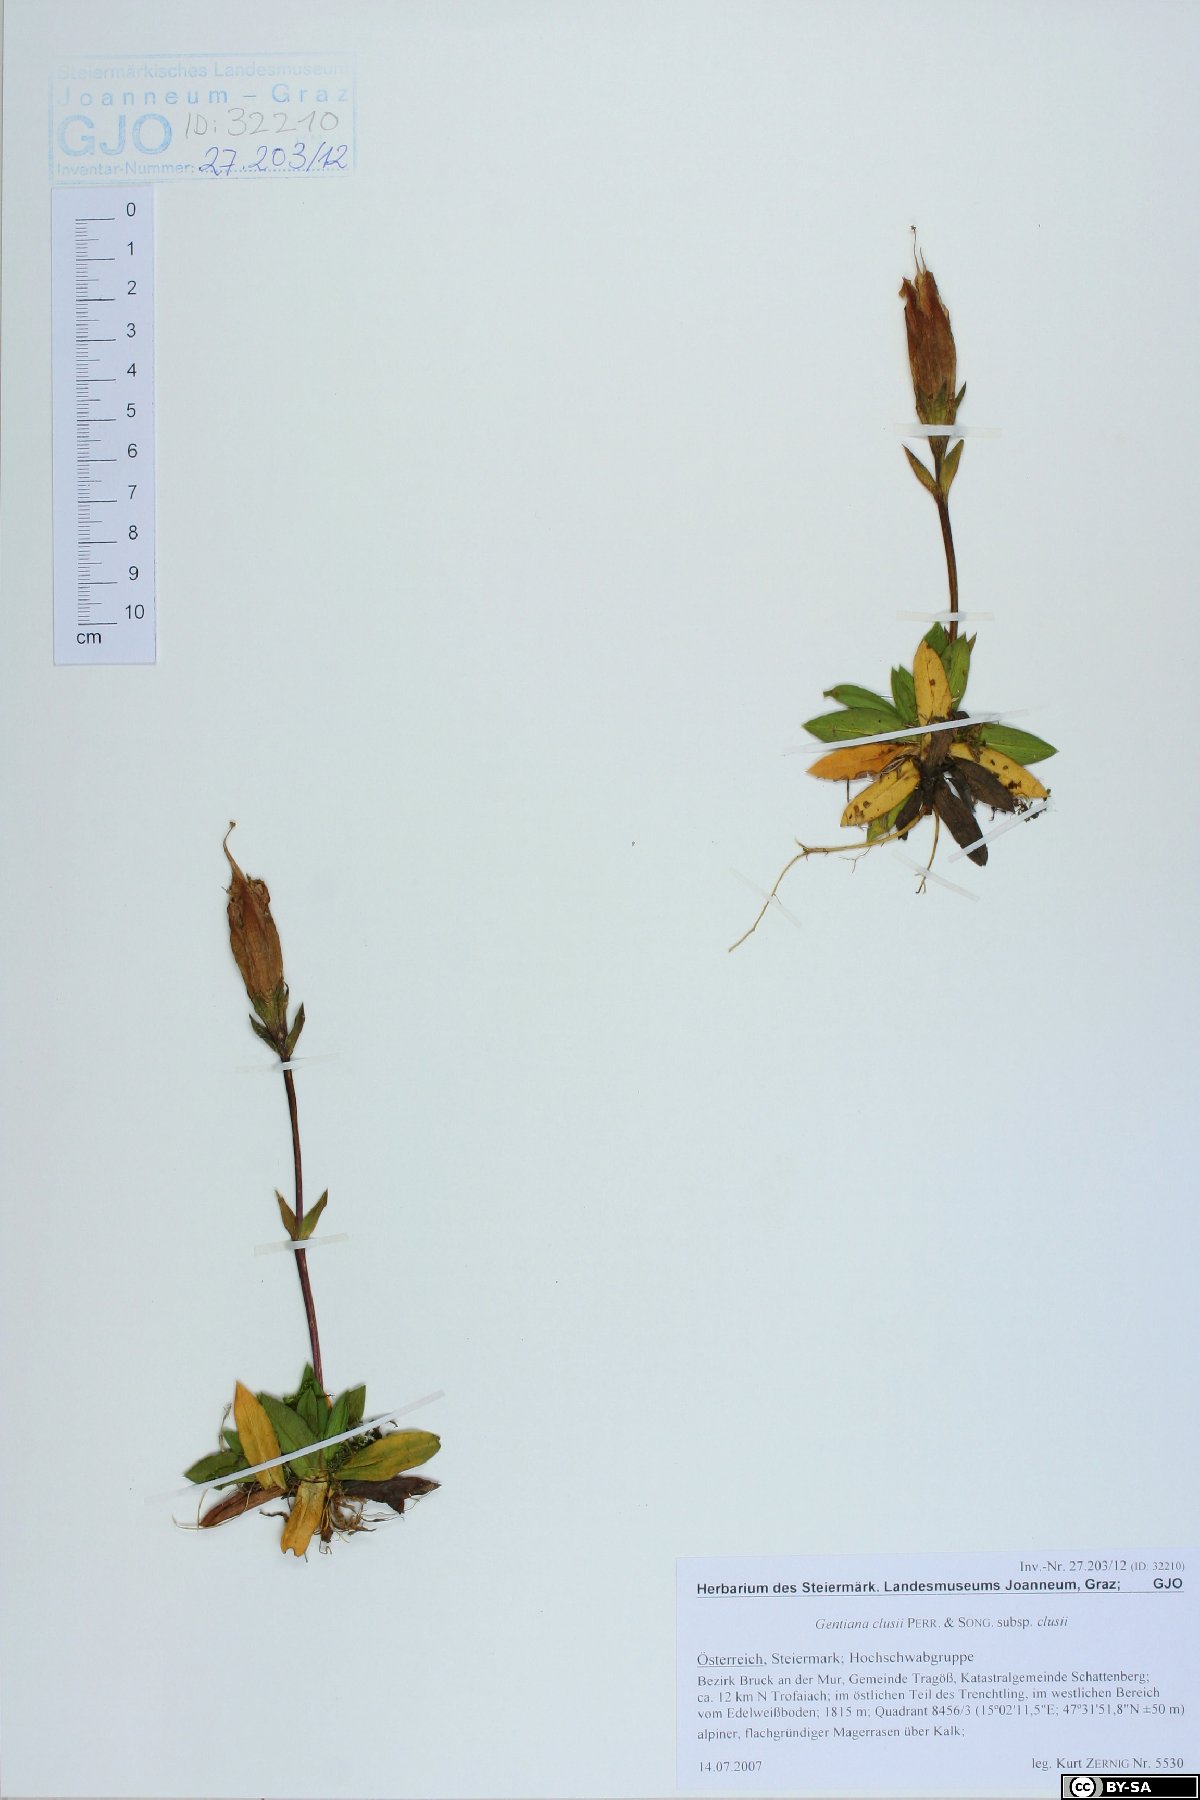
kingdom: Plantae
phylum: Tracheophyta
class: Magnoliopsida
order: Gentianales
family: Gentianaceae
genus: Gentiana
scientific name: Gentiana clusii
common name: Trumpet gentian
